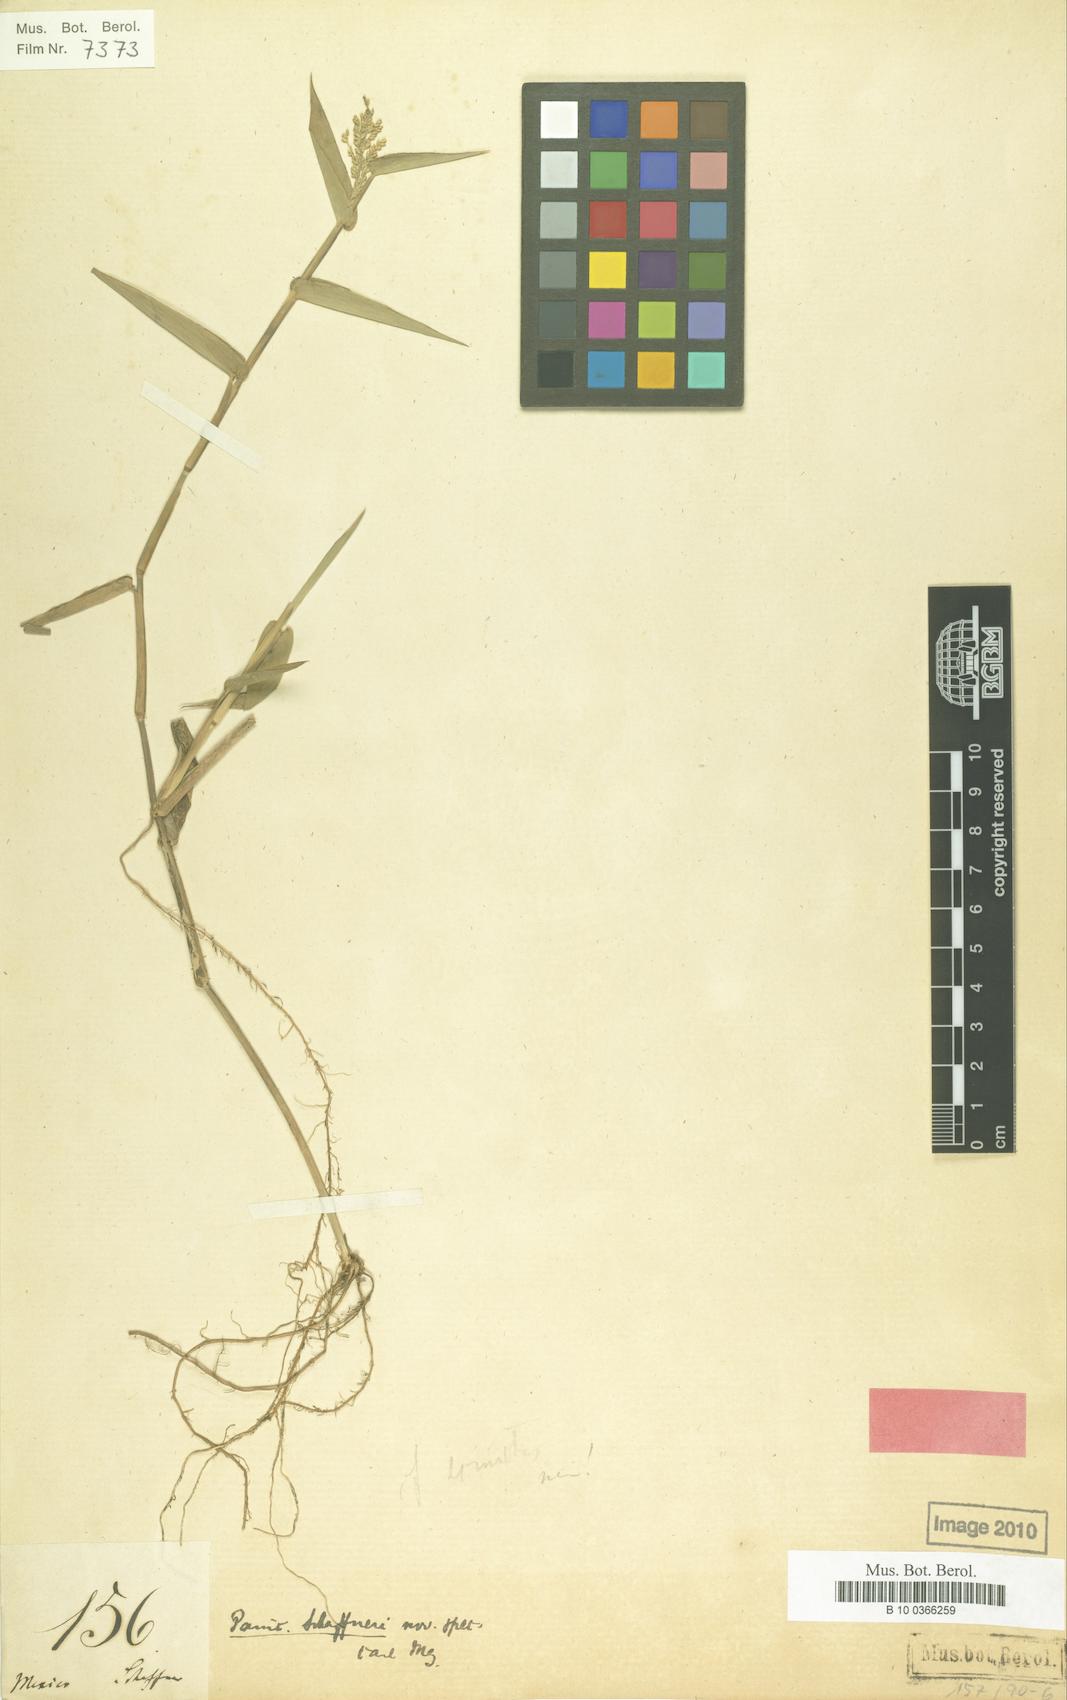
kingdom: Plantae
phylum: Tracheophyta
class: Liliopsida
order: Poales
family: Poaceae
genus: Rugoloa
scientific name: Rugoloa polygonata
